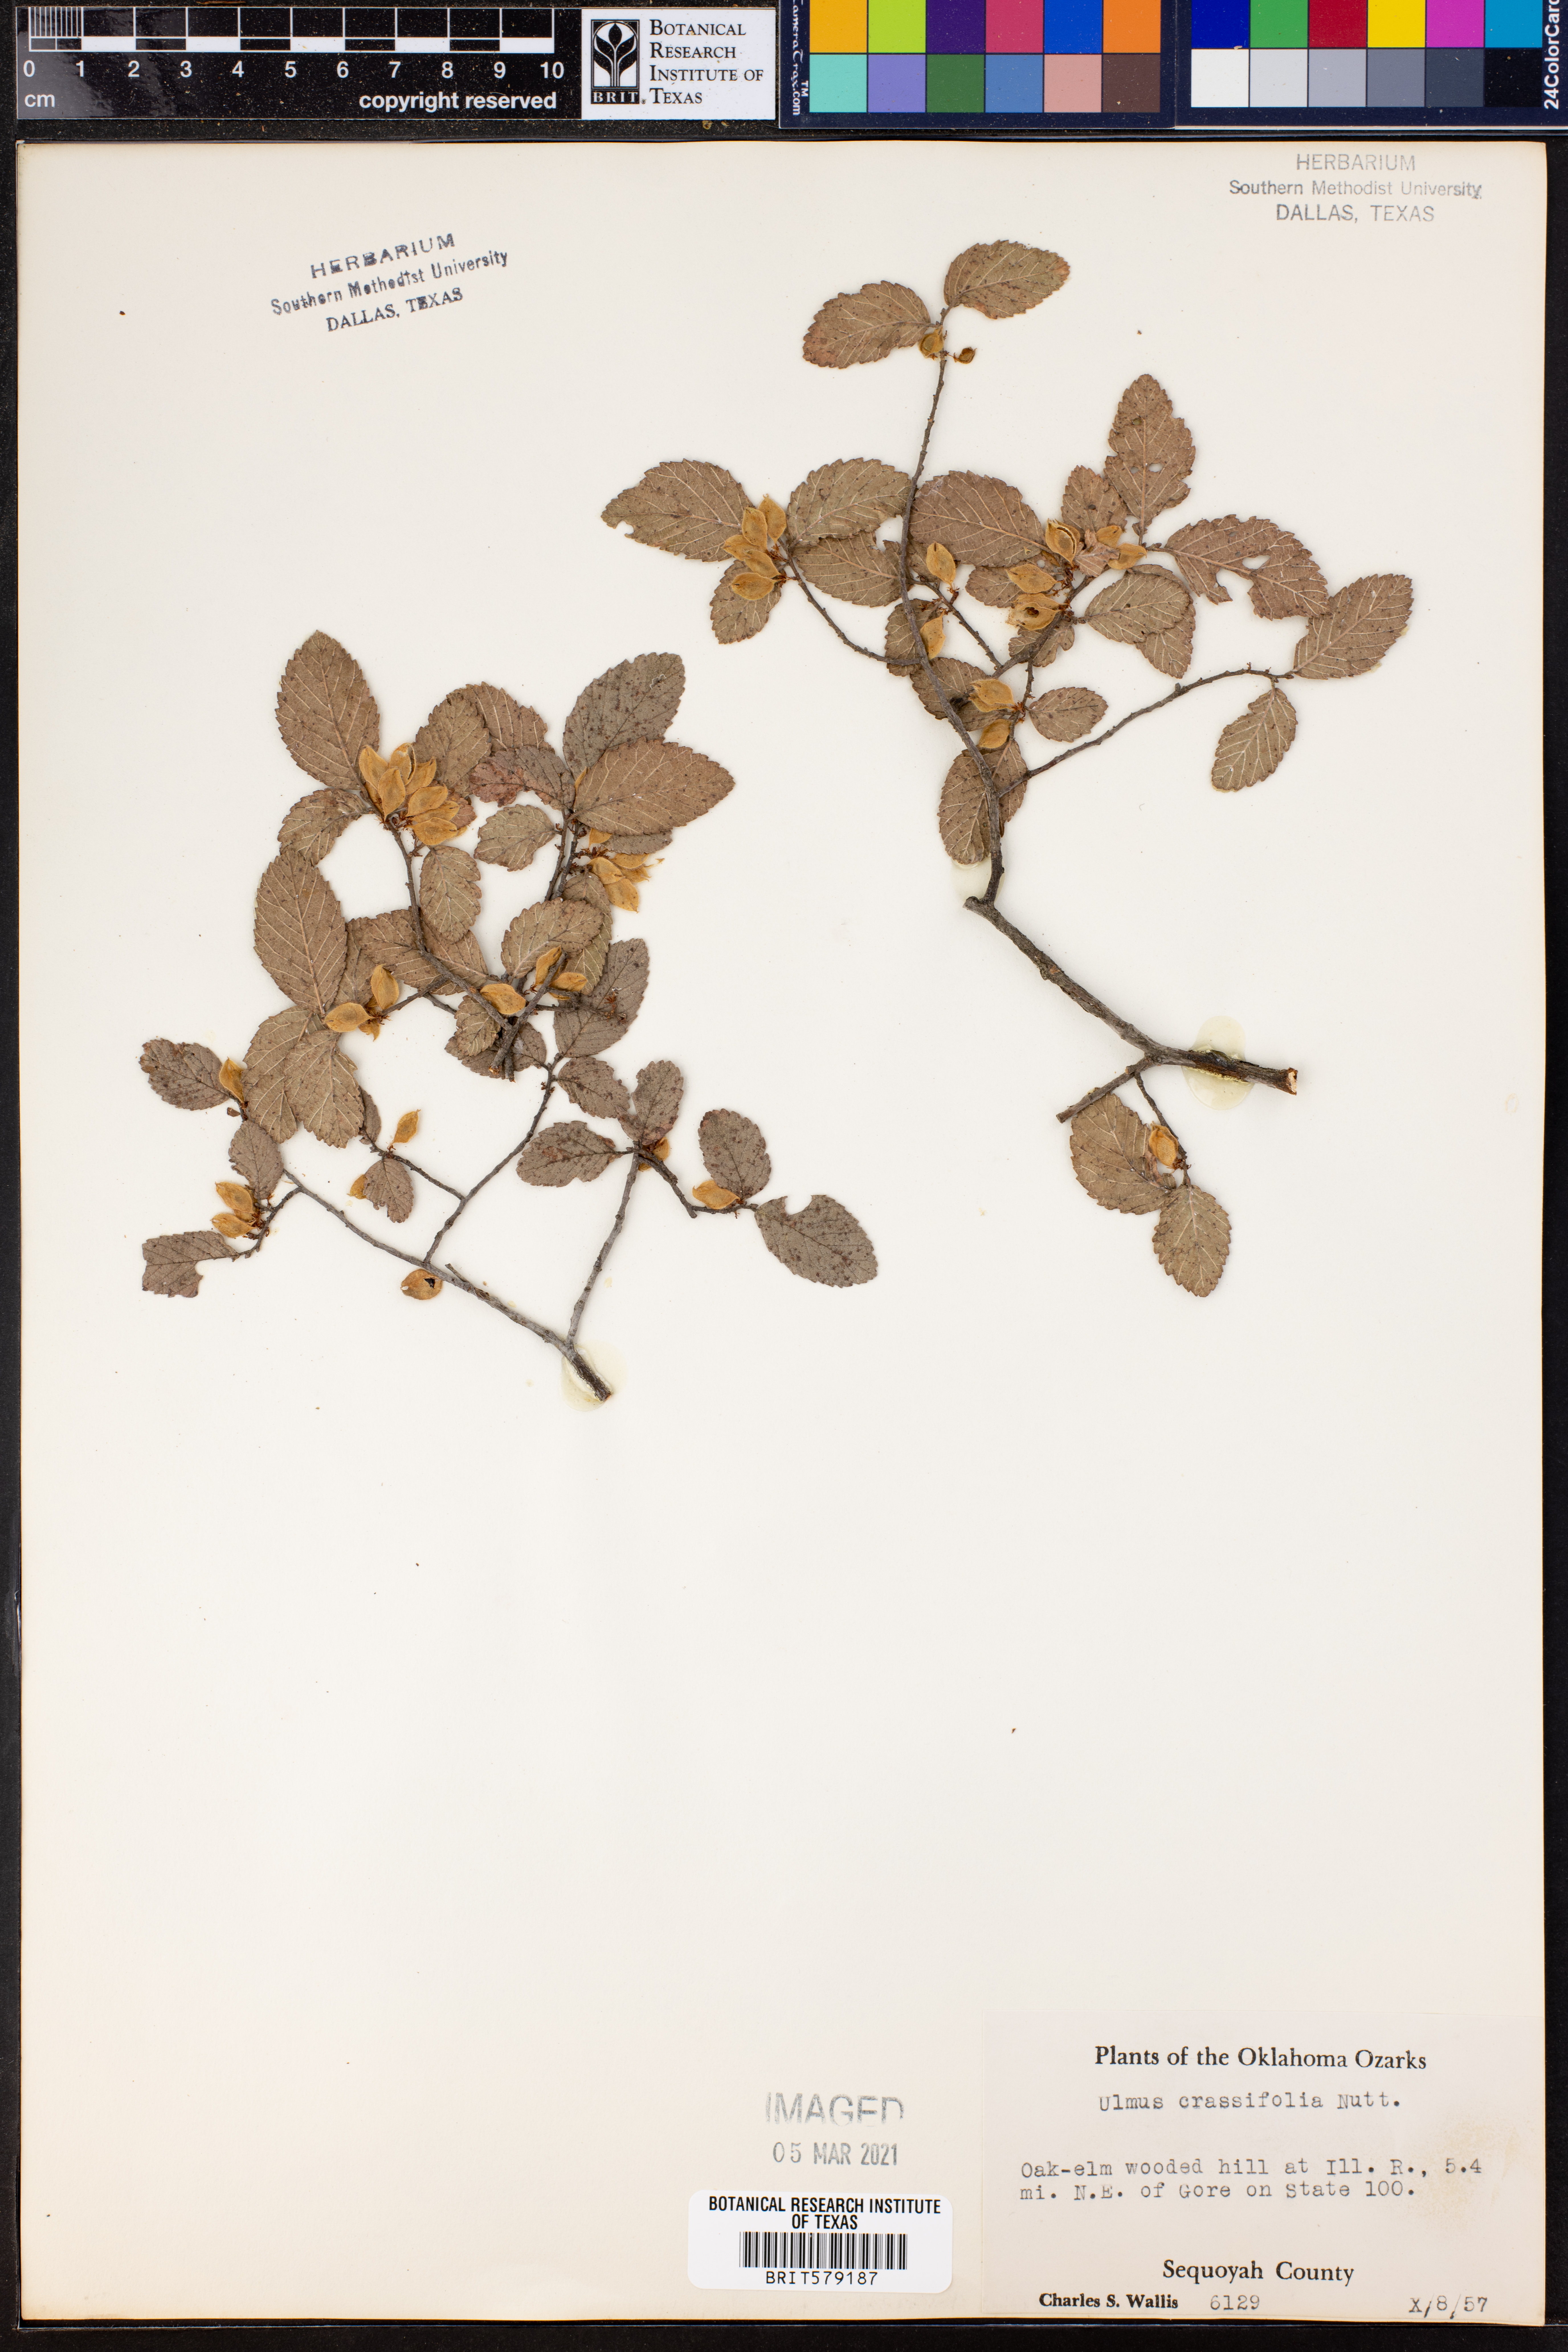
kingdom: Plantae
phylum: Tracheophyta
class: Magnoliopsida
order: Rosales
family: Ulmaceae
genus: Ulmus
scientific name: Ulmus crassifolia
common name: Basket elm
